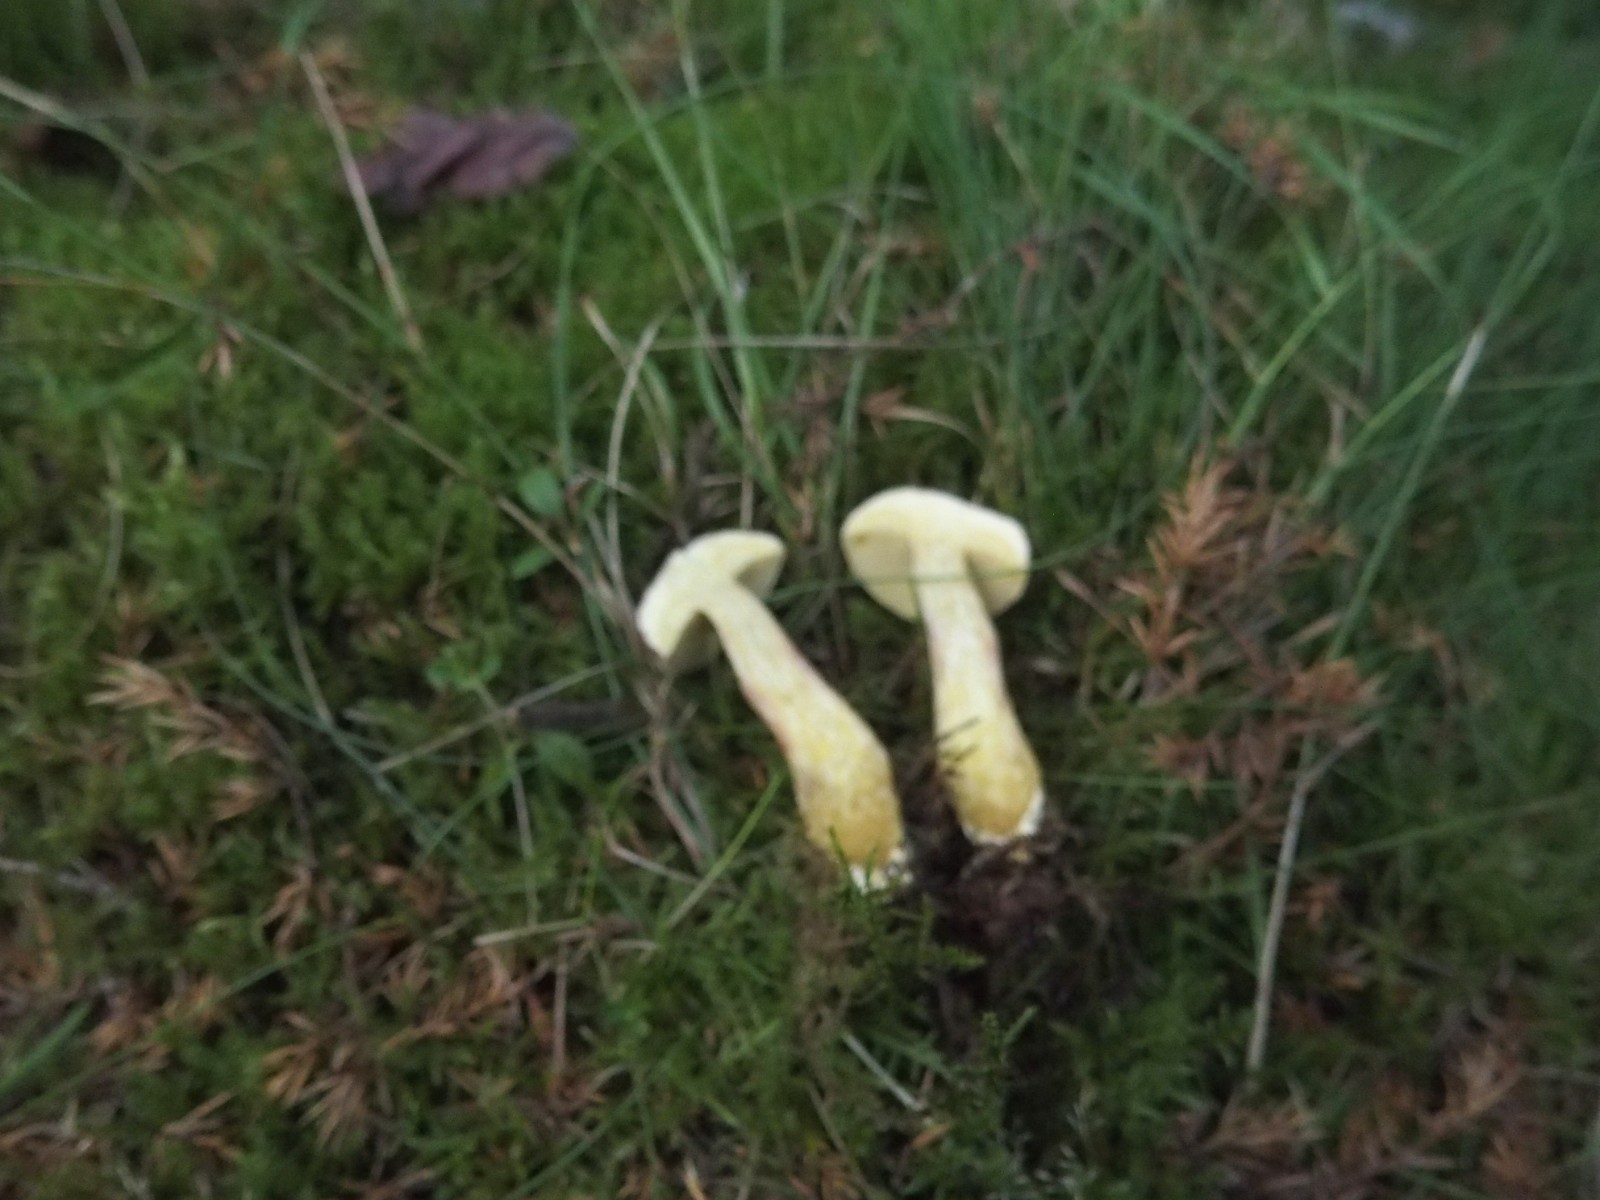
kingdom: Fungi
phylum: Basidiomycota
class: Agaricomycetes
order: Boletales
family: Boletaceae
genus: Xerocomellus
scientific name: Xerocomellus
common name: dværgrørhat
